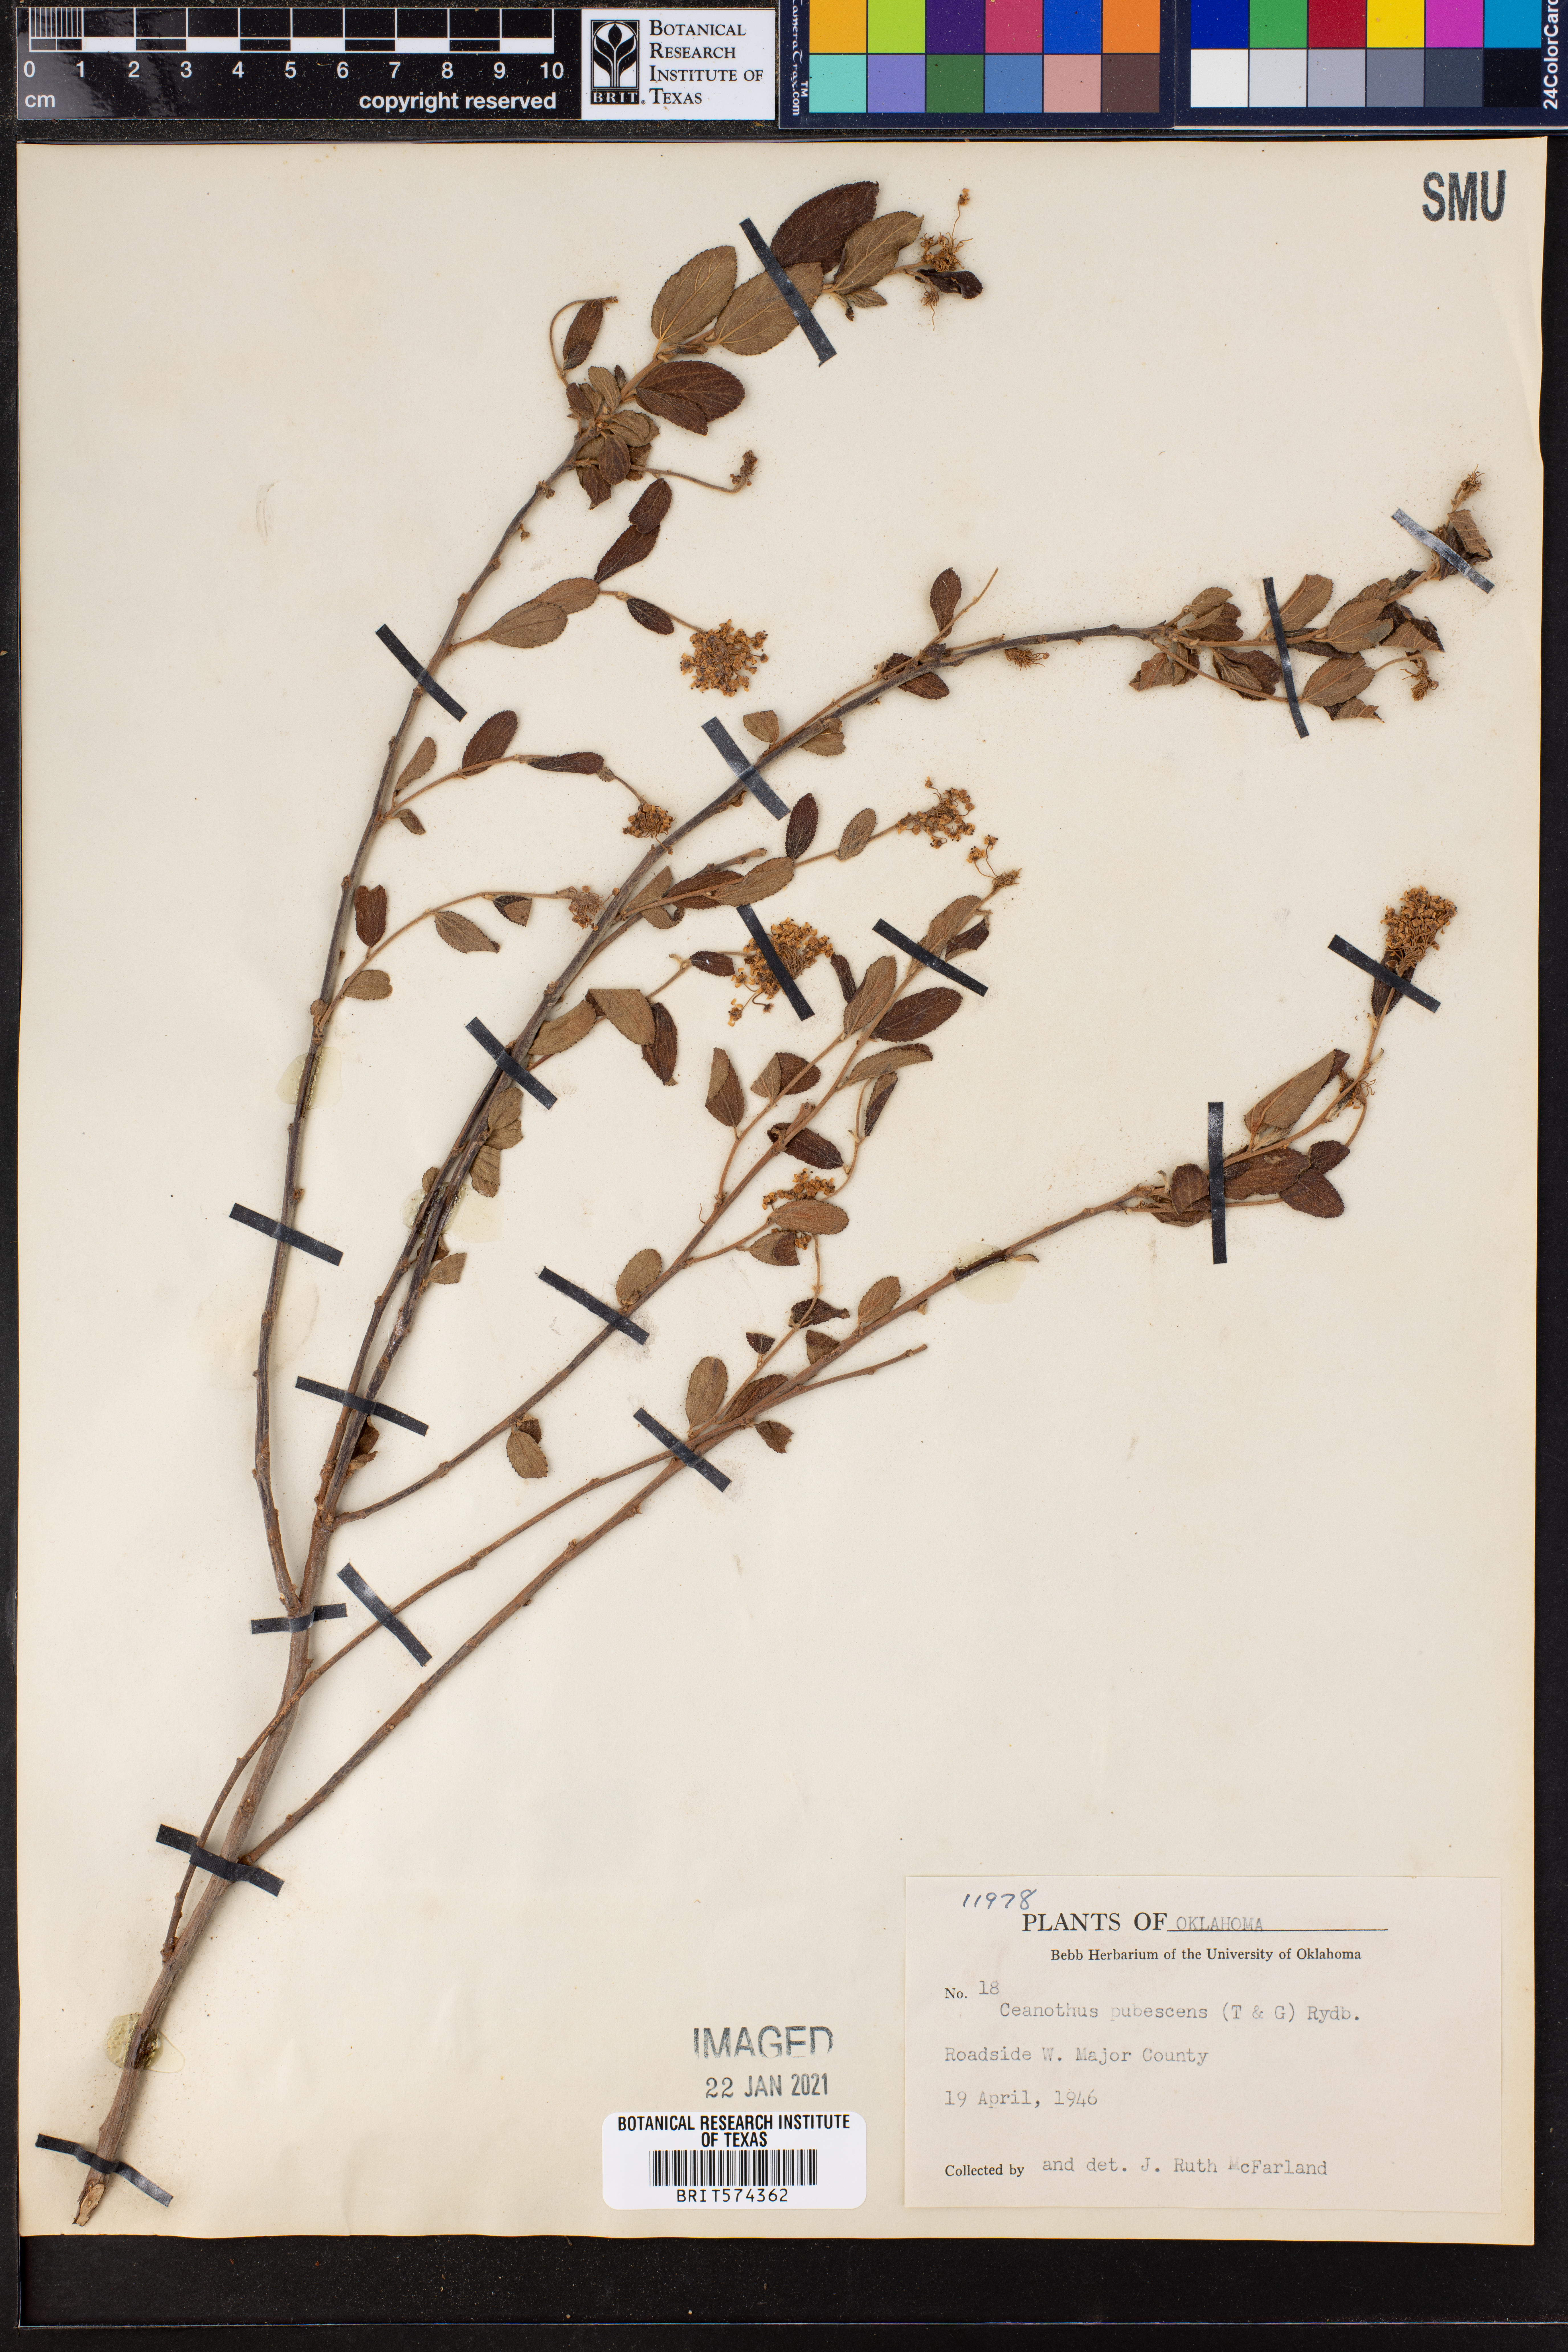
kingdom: Plantae
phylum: Tracheophyta
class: Magnoliopsida
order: Rosales
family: Rhamnaceae
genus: Ceanothus
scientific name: Ceanothus herbaceus
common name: Inland ceanothus
